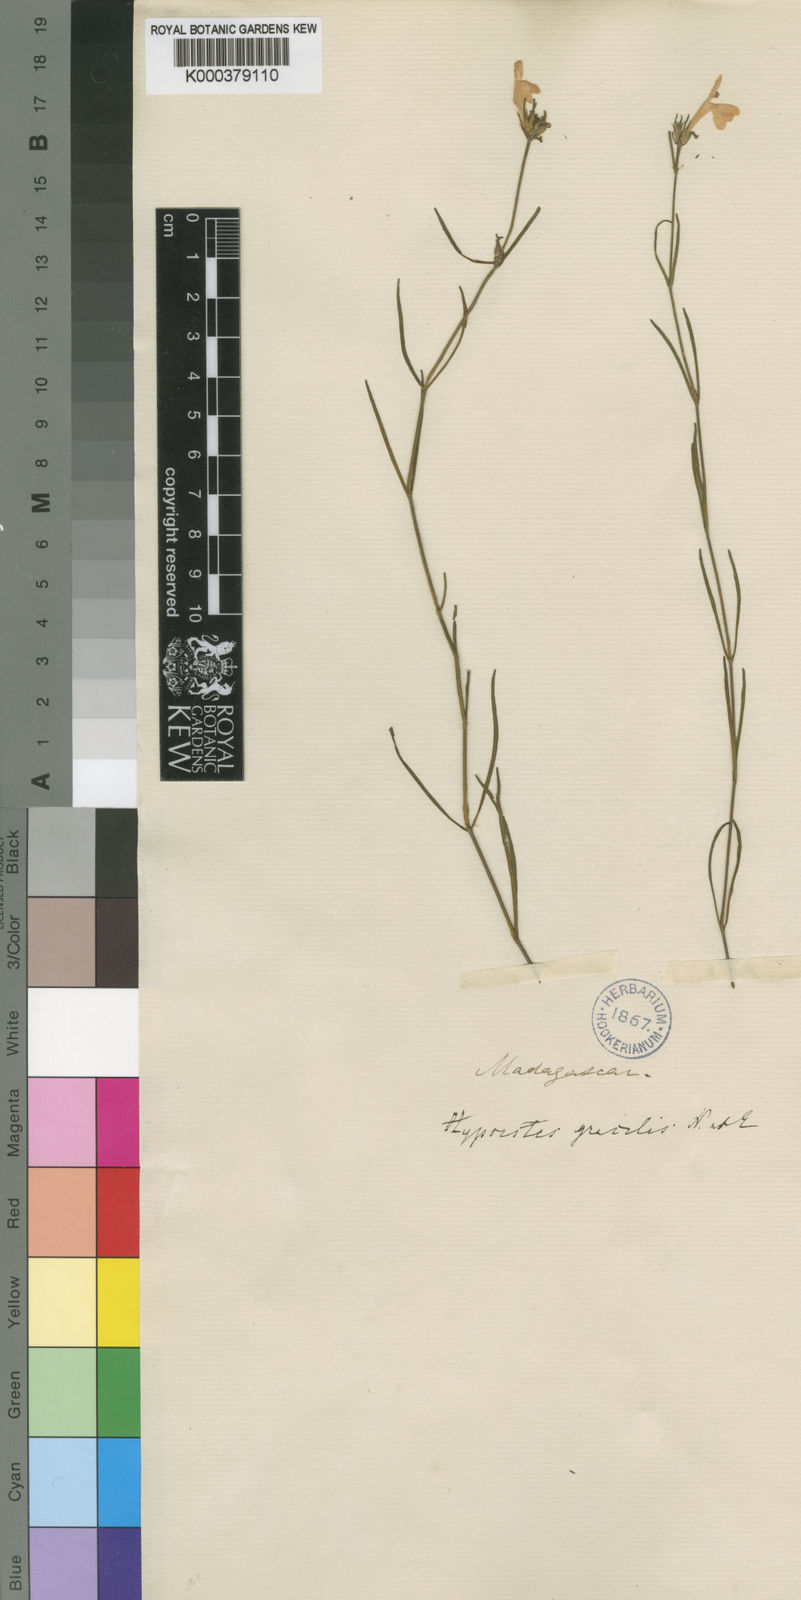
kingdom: Plantae
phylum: Tracheophyta
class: Magnoliopsida
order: Lamiales
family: Acanthaceae
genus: Hypoestes
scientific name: Hypoestes gracilis
